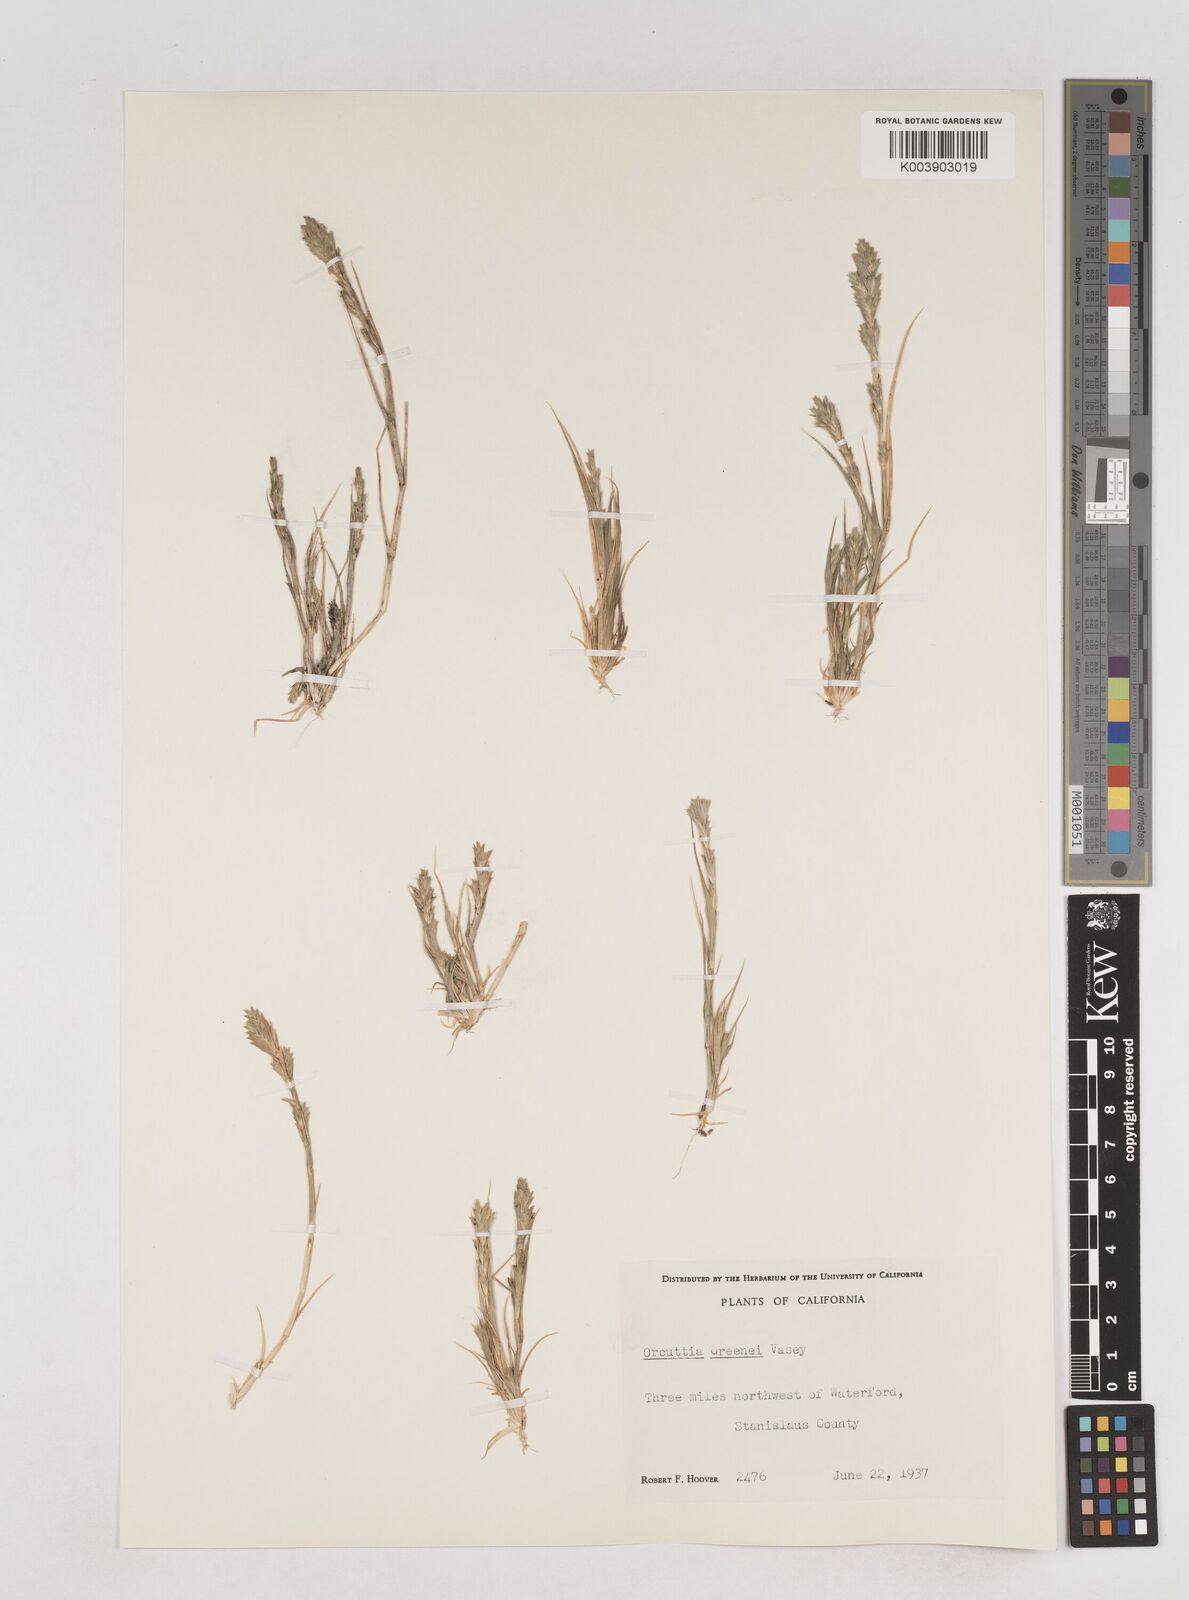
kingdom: Plantae
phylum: Tracheophyta
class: Liliopsida
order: Poales
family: Poaceae
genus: Tuctoria
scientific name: Tuctoria greenei
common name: Awnless spiral grass
